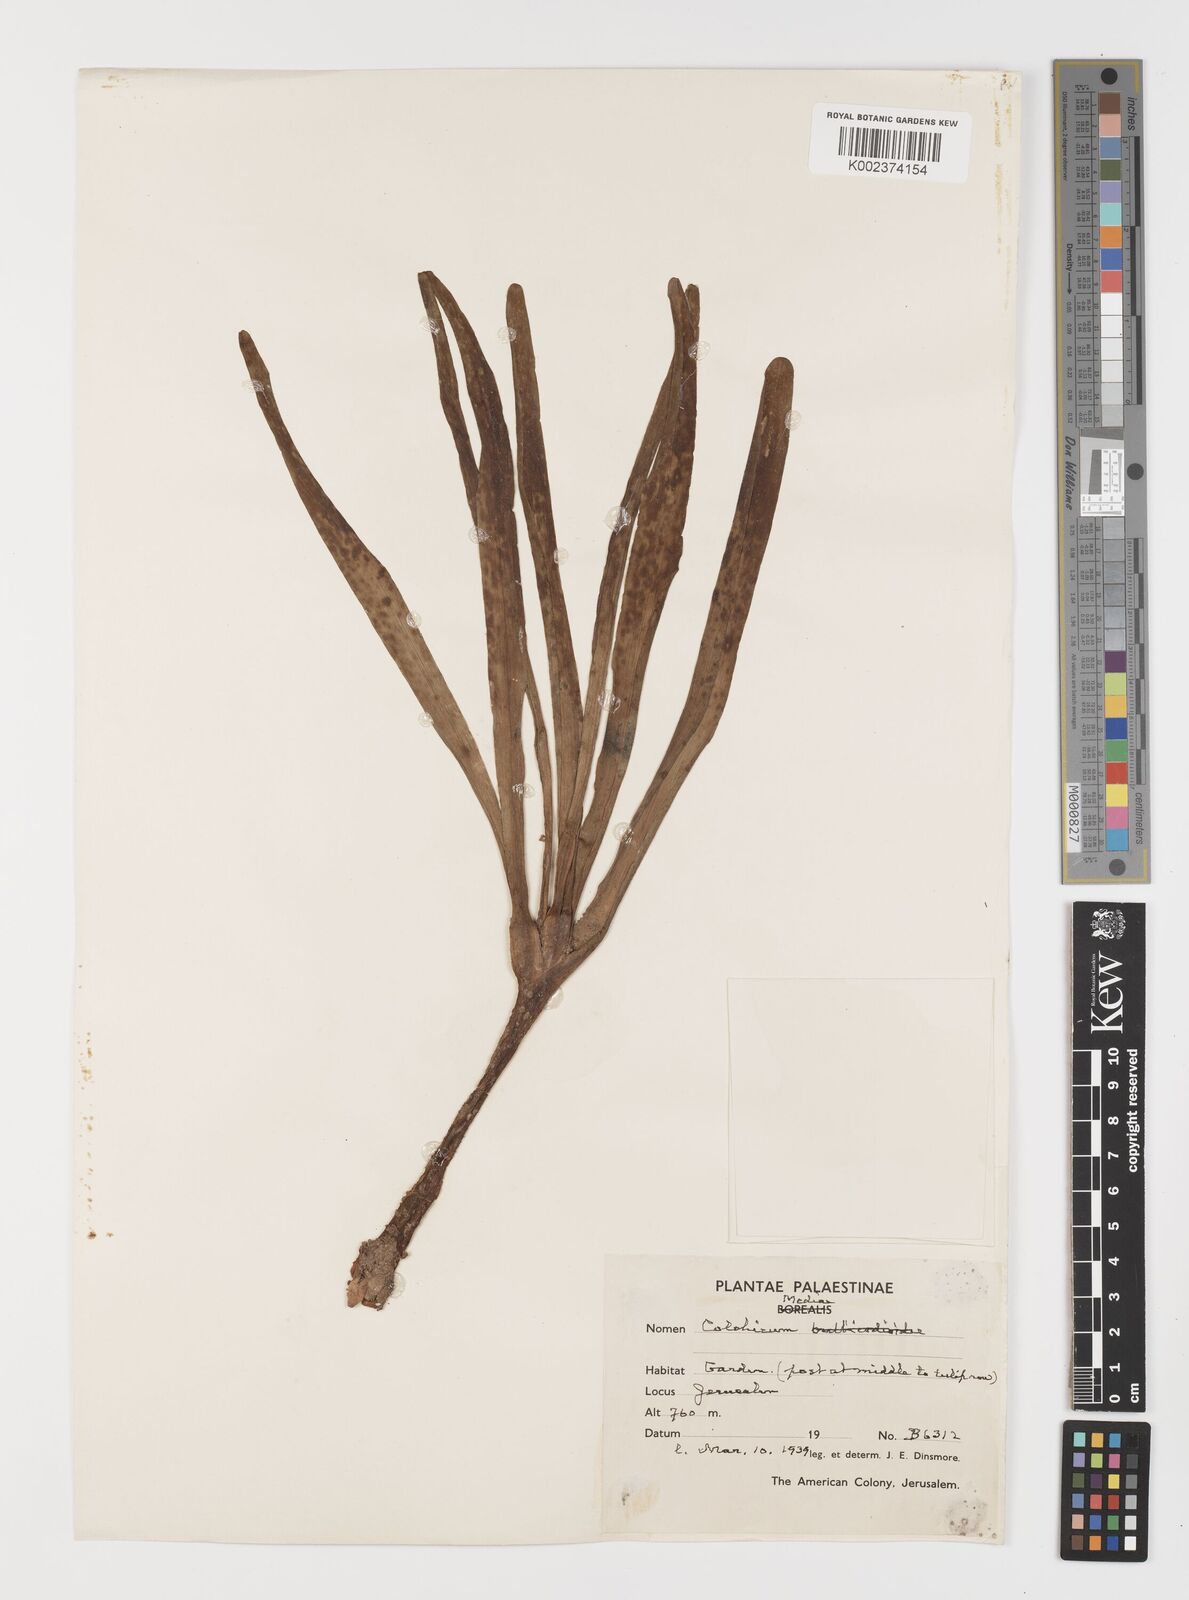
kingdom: Plantae
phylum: Tracheophyta
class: Liliopsida
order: Liliales
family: Colchicaceae
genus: Colchicum
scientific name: Colchicum hierosolymitanum
